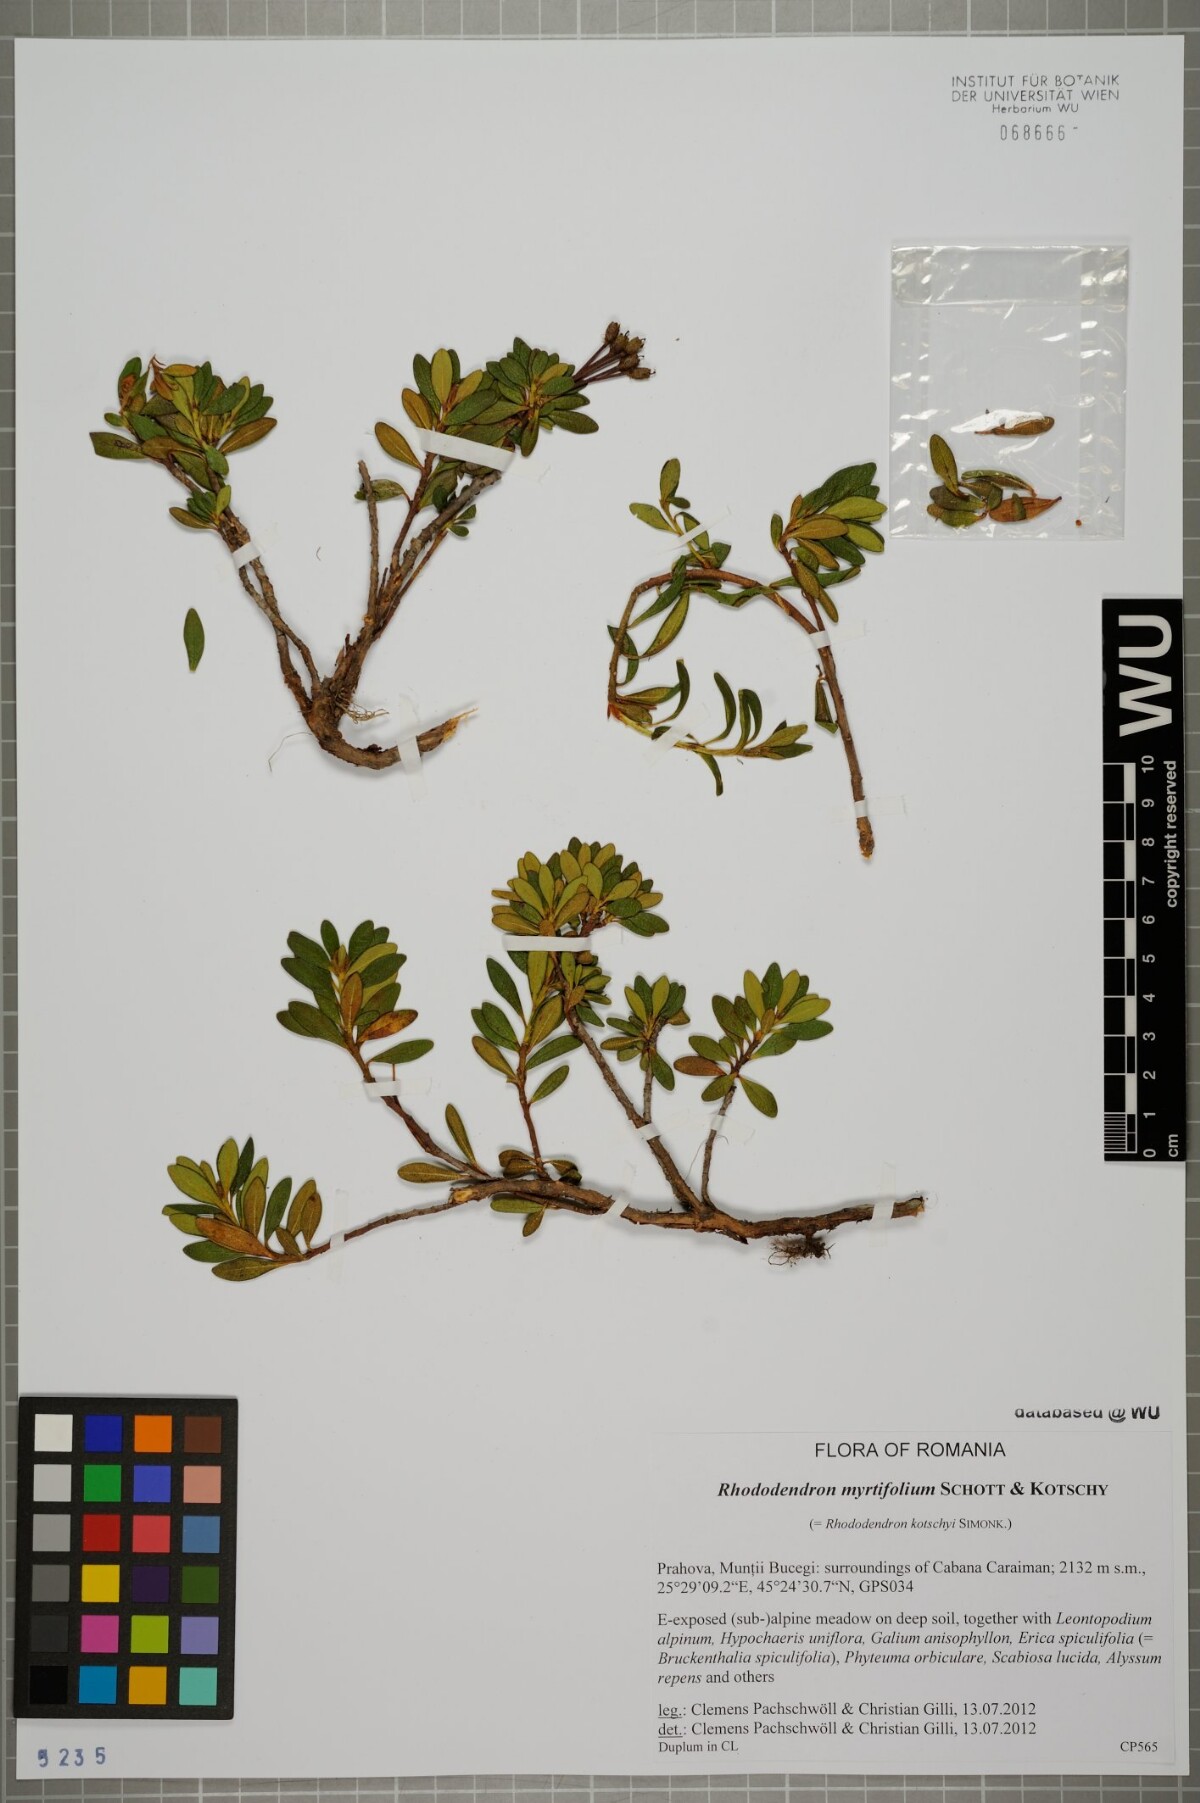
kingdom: Plantae
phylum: Tracheophyta
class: Magnoliopsida
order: Ericales
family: Ericaceae
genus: Rhododendron
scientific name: Rhododendron ponticum
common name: Rhododendron
